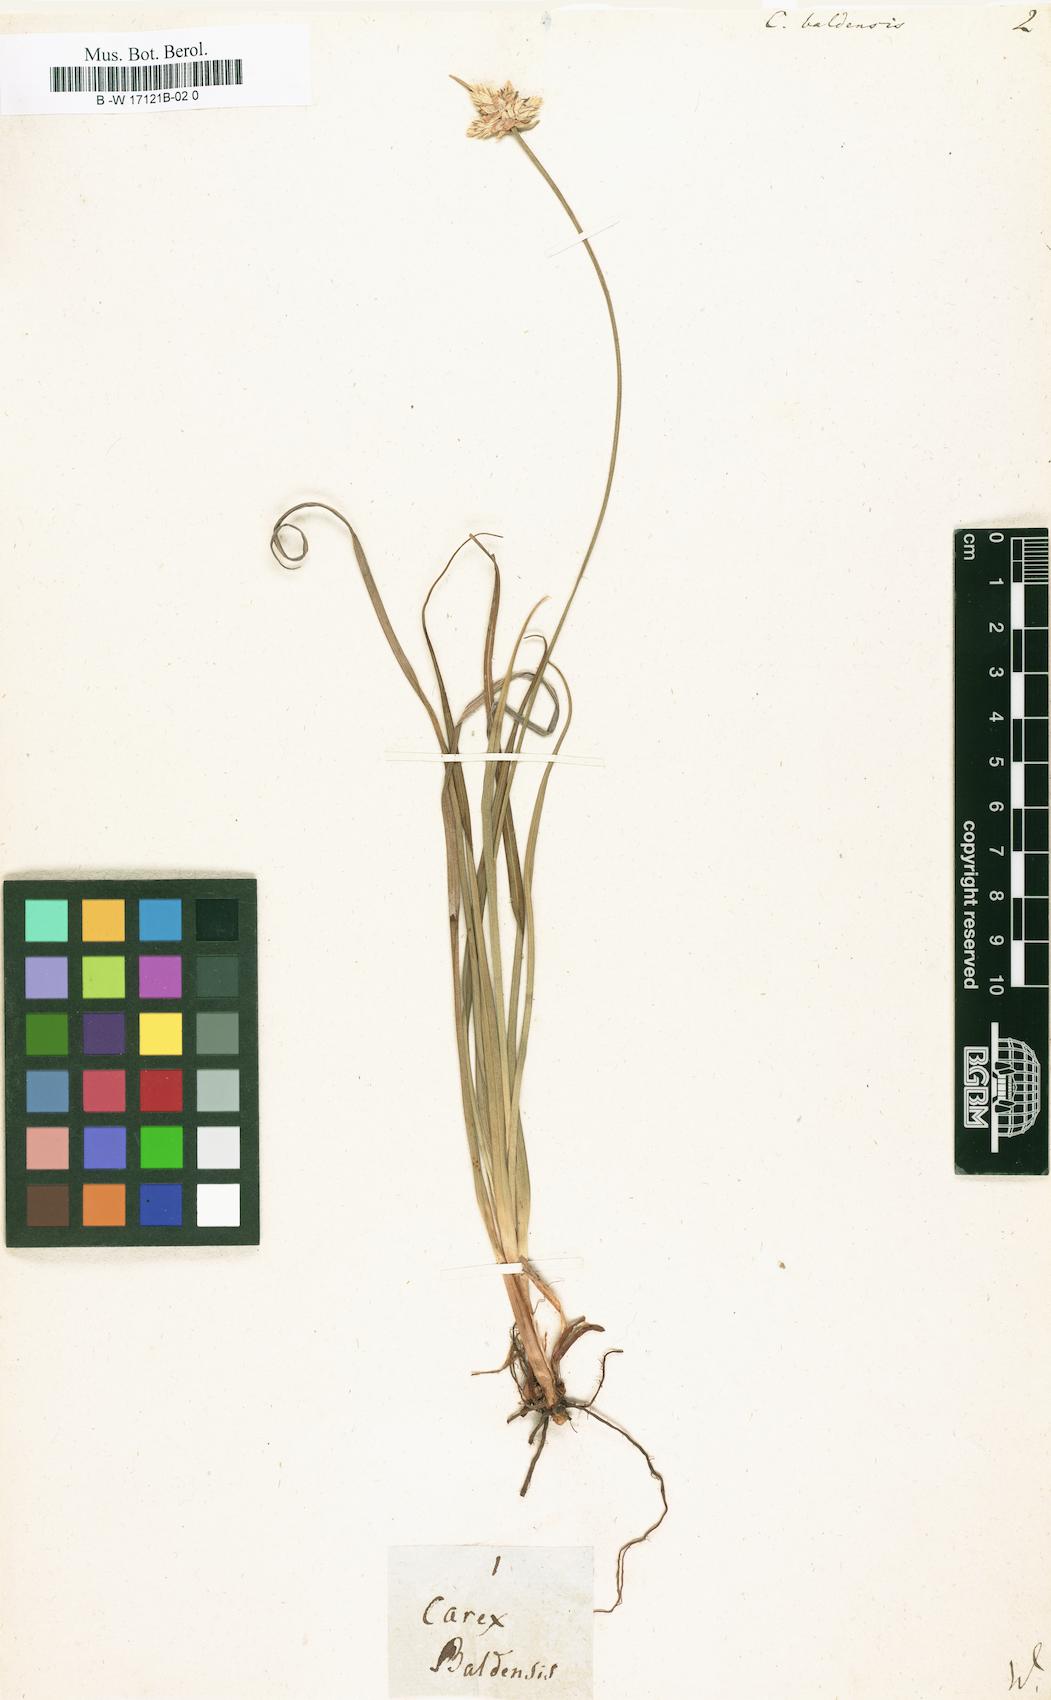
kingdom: Plantae
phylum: Tracheophyta
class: Liliopsida
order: Poales
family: Cyperaceae
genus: Carex
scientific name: Carex baldensis
